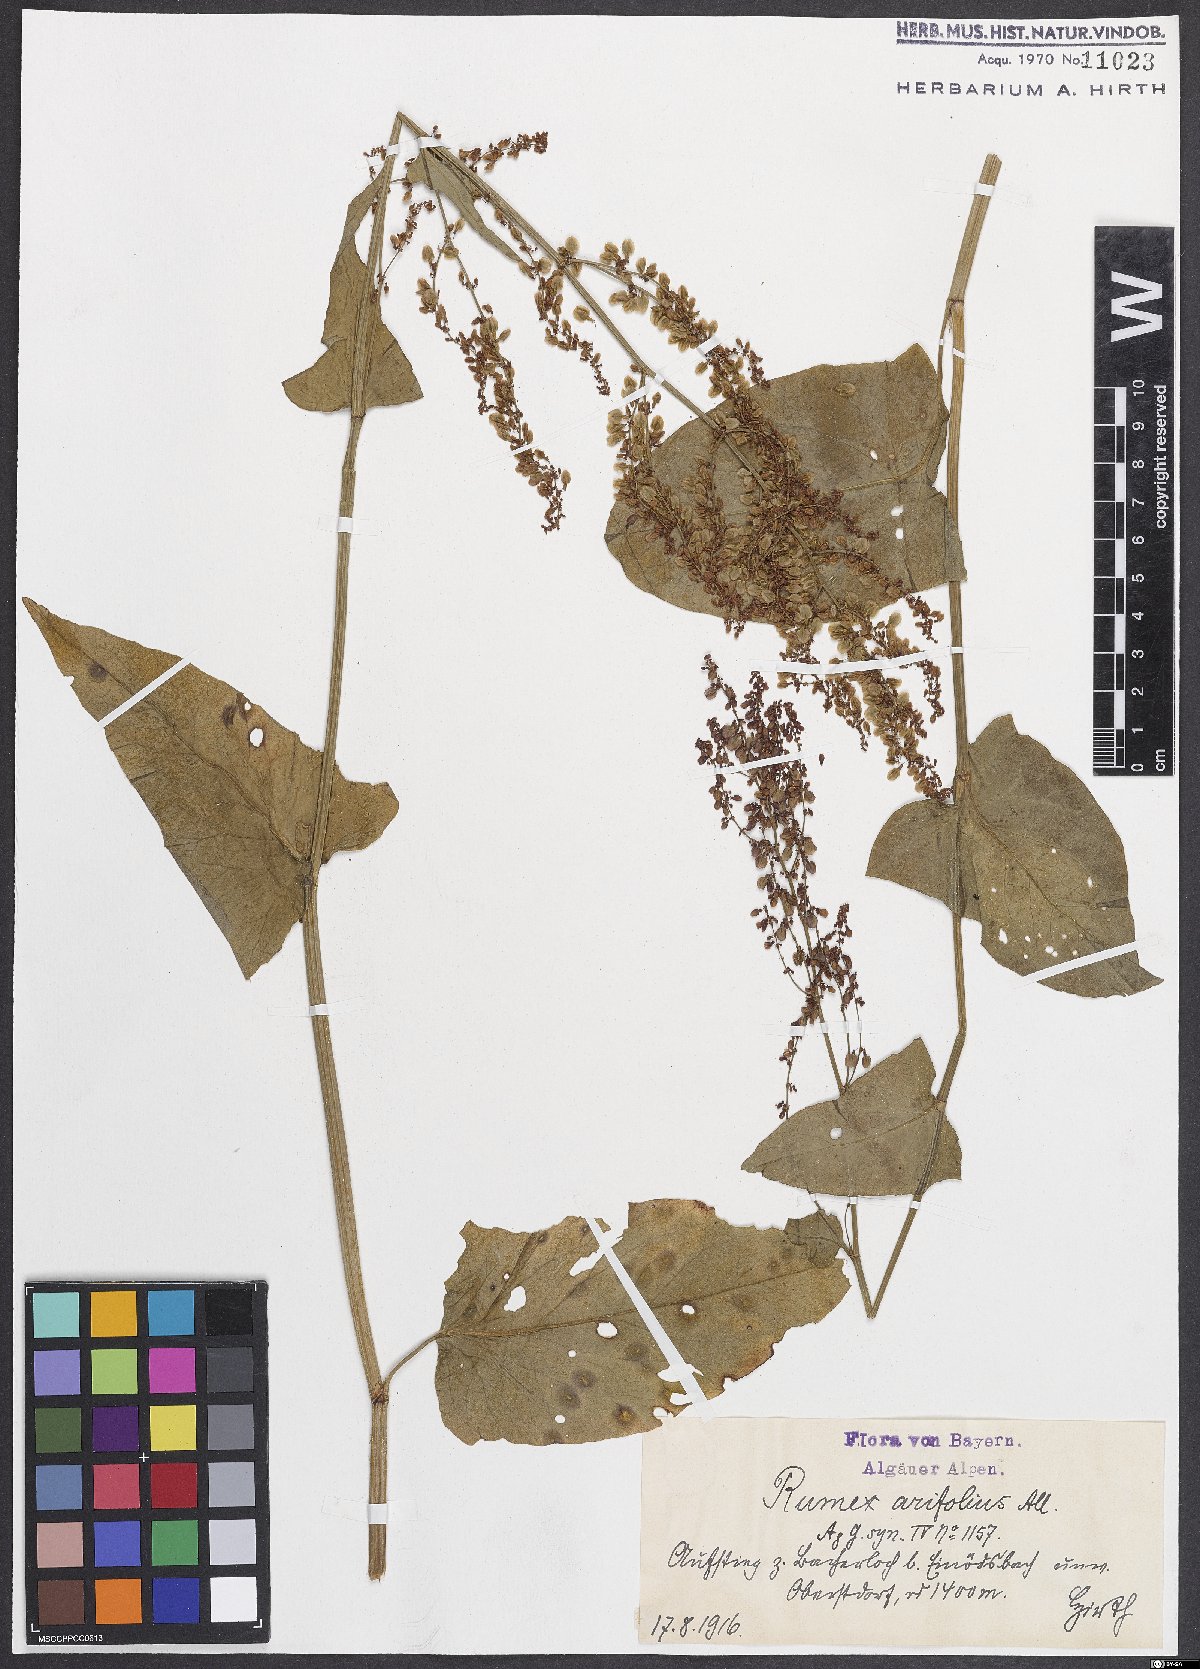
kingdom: Plantae
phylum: Tracheophyta
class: Magnoliopsida
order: Caryophyllales
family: Polygonaceae
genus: Rumex
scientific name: Rumex arifolius
